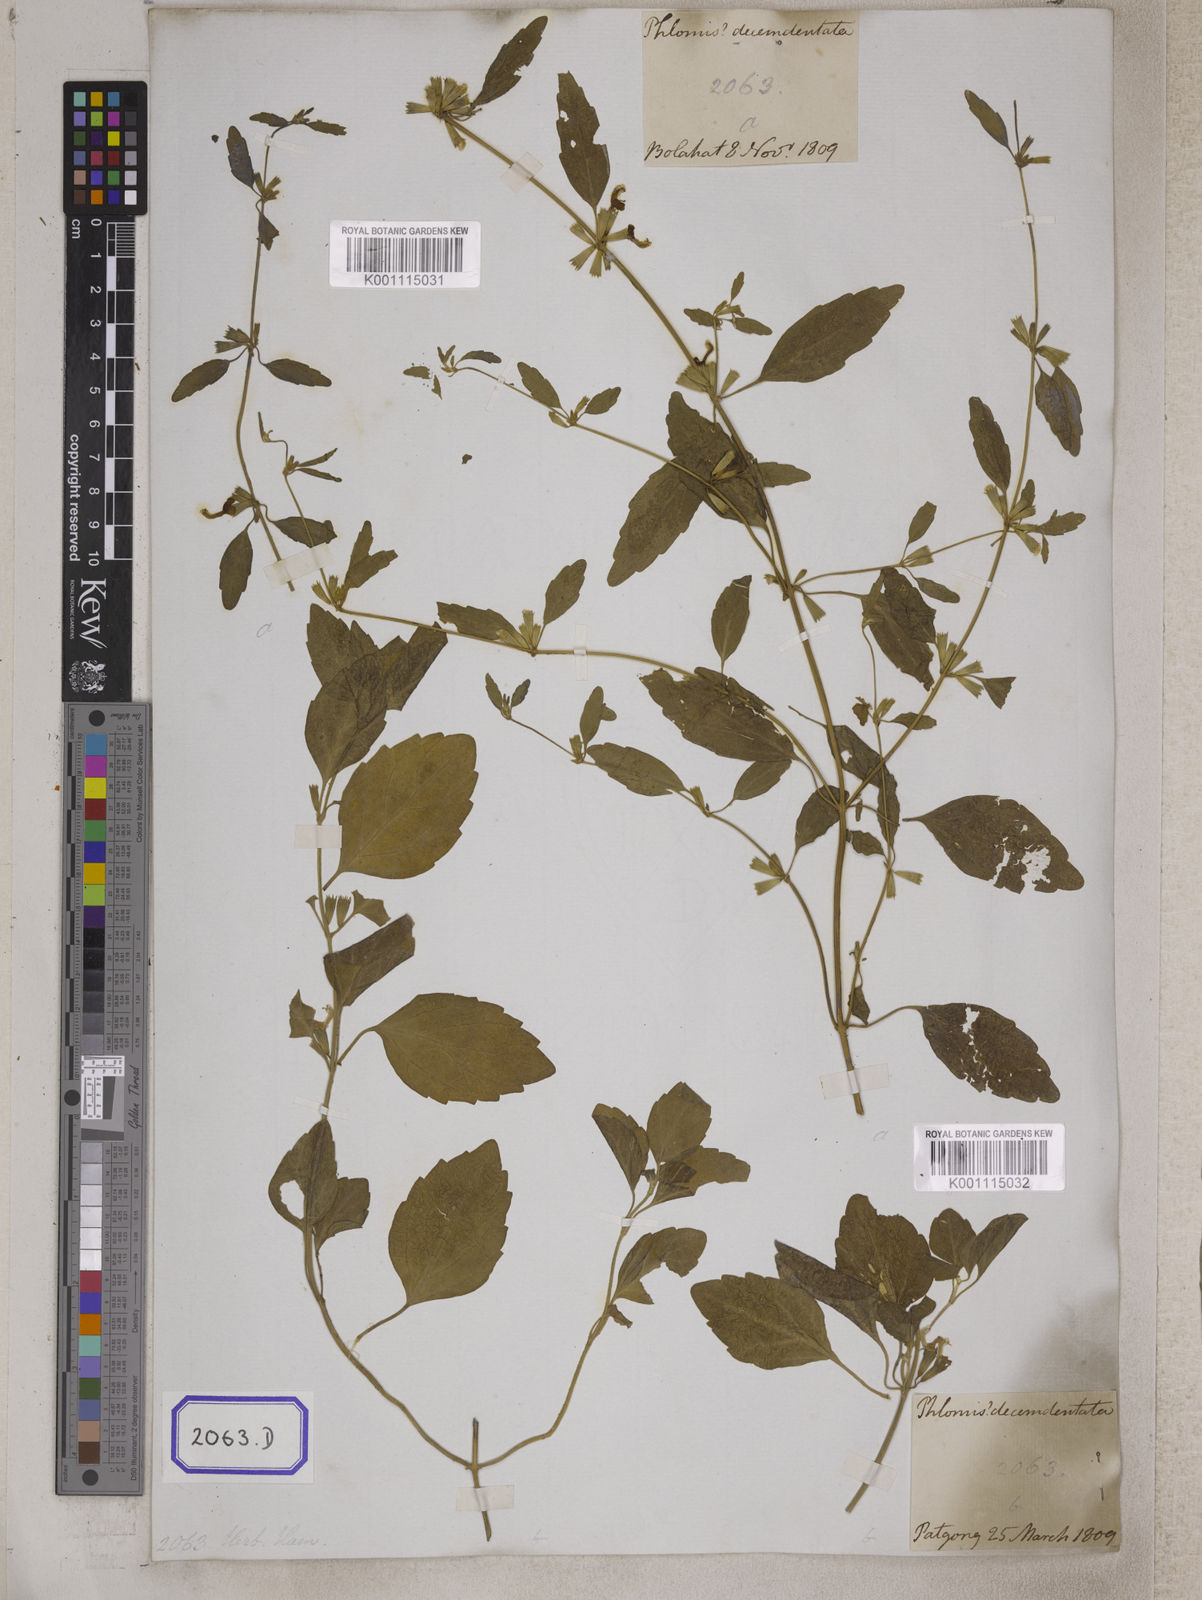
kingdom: Plantae
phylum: Tracheophyta
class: Magnoliopsida
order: Lamiales
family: Lamiaceae
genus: Leucas
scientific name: Leucas
